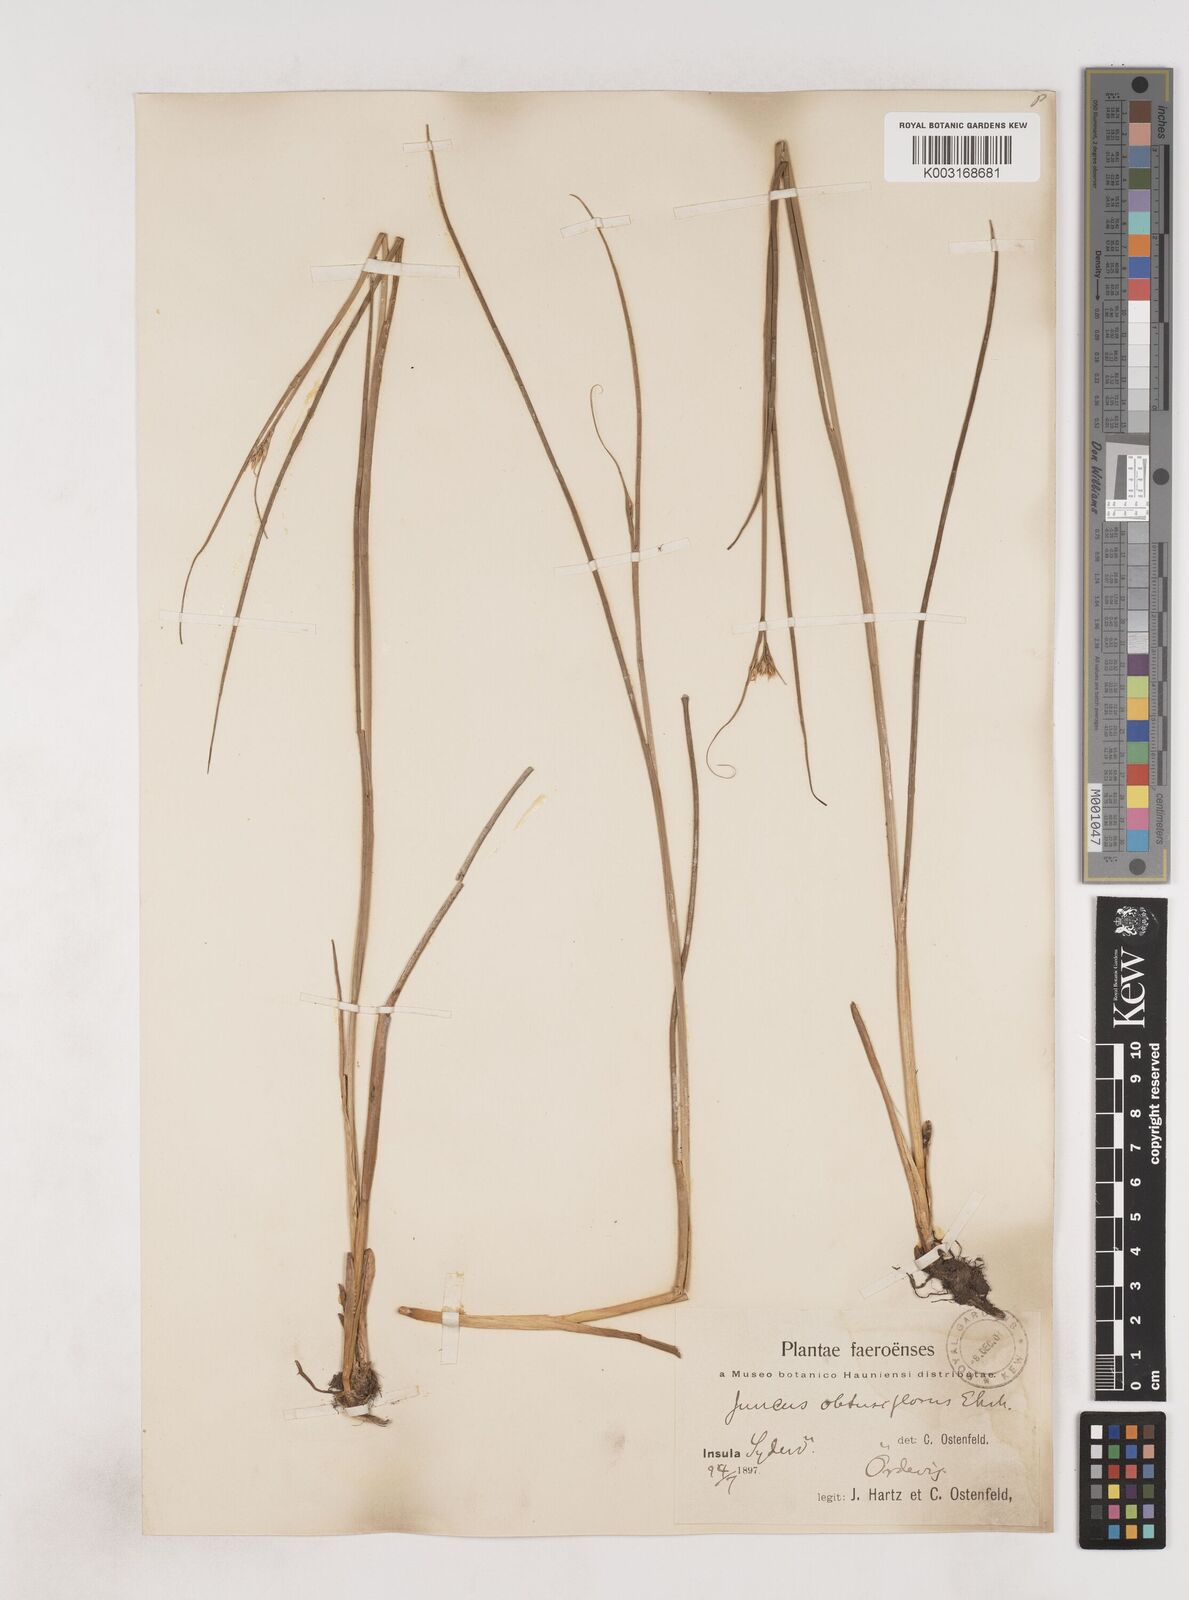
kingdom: Plantae
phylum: Tracheophyta
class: Liliopsida
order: Poales
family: Juncaceae
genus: Juncus
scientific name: Juncus subnodulosus
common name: Blunt-flowered rush
